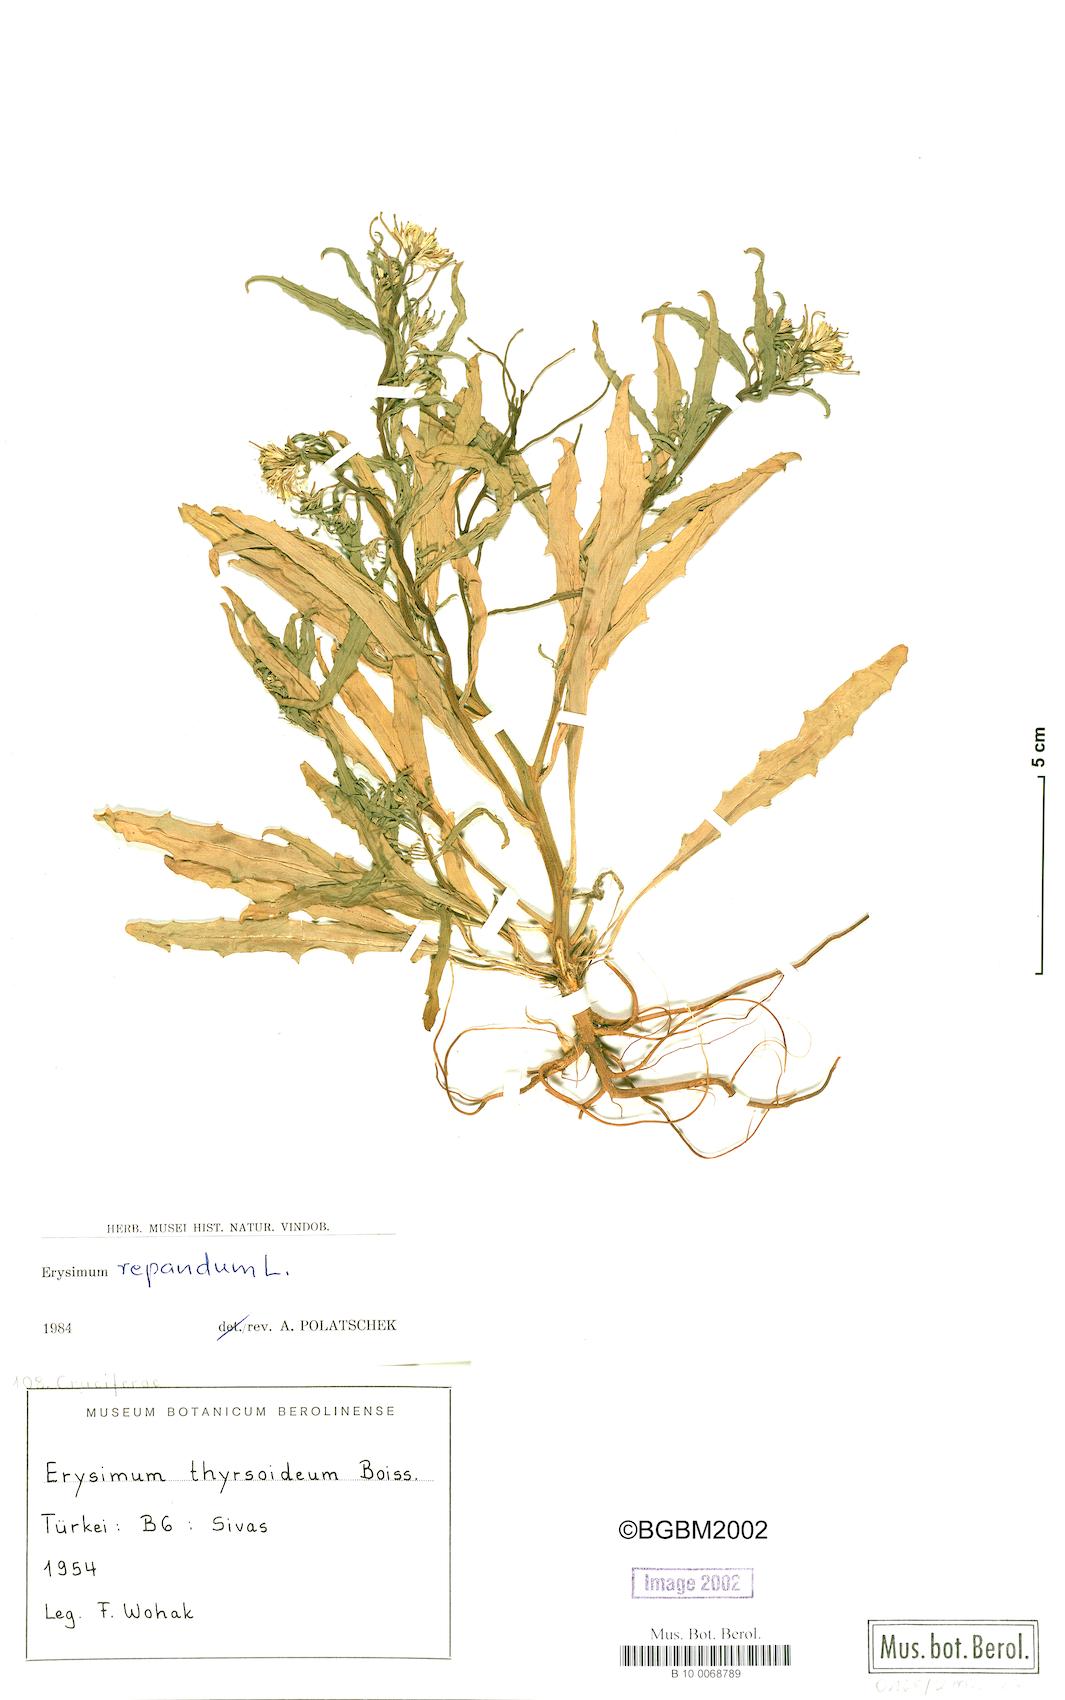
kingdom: Plantae
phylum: Tracheophyta
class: Magnoliopsida
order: Brassicales
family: Brassicaceae
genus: Erysimum
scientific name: Erysimum repandum
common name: Spreading wallflower
